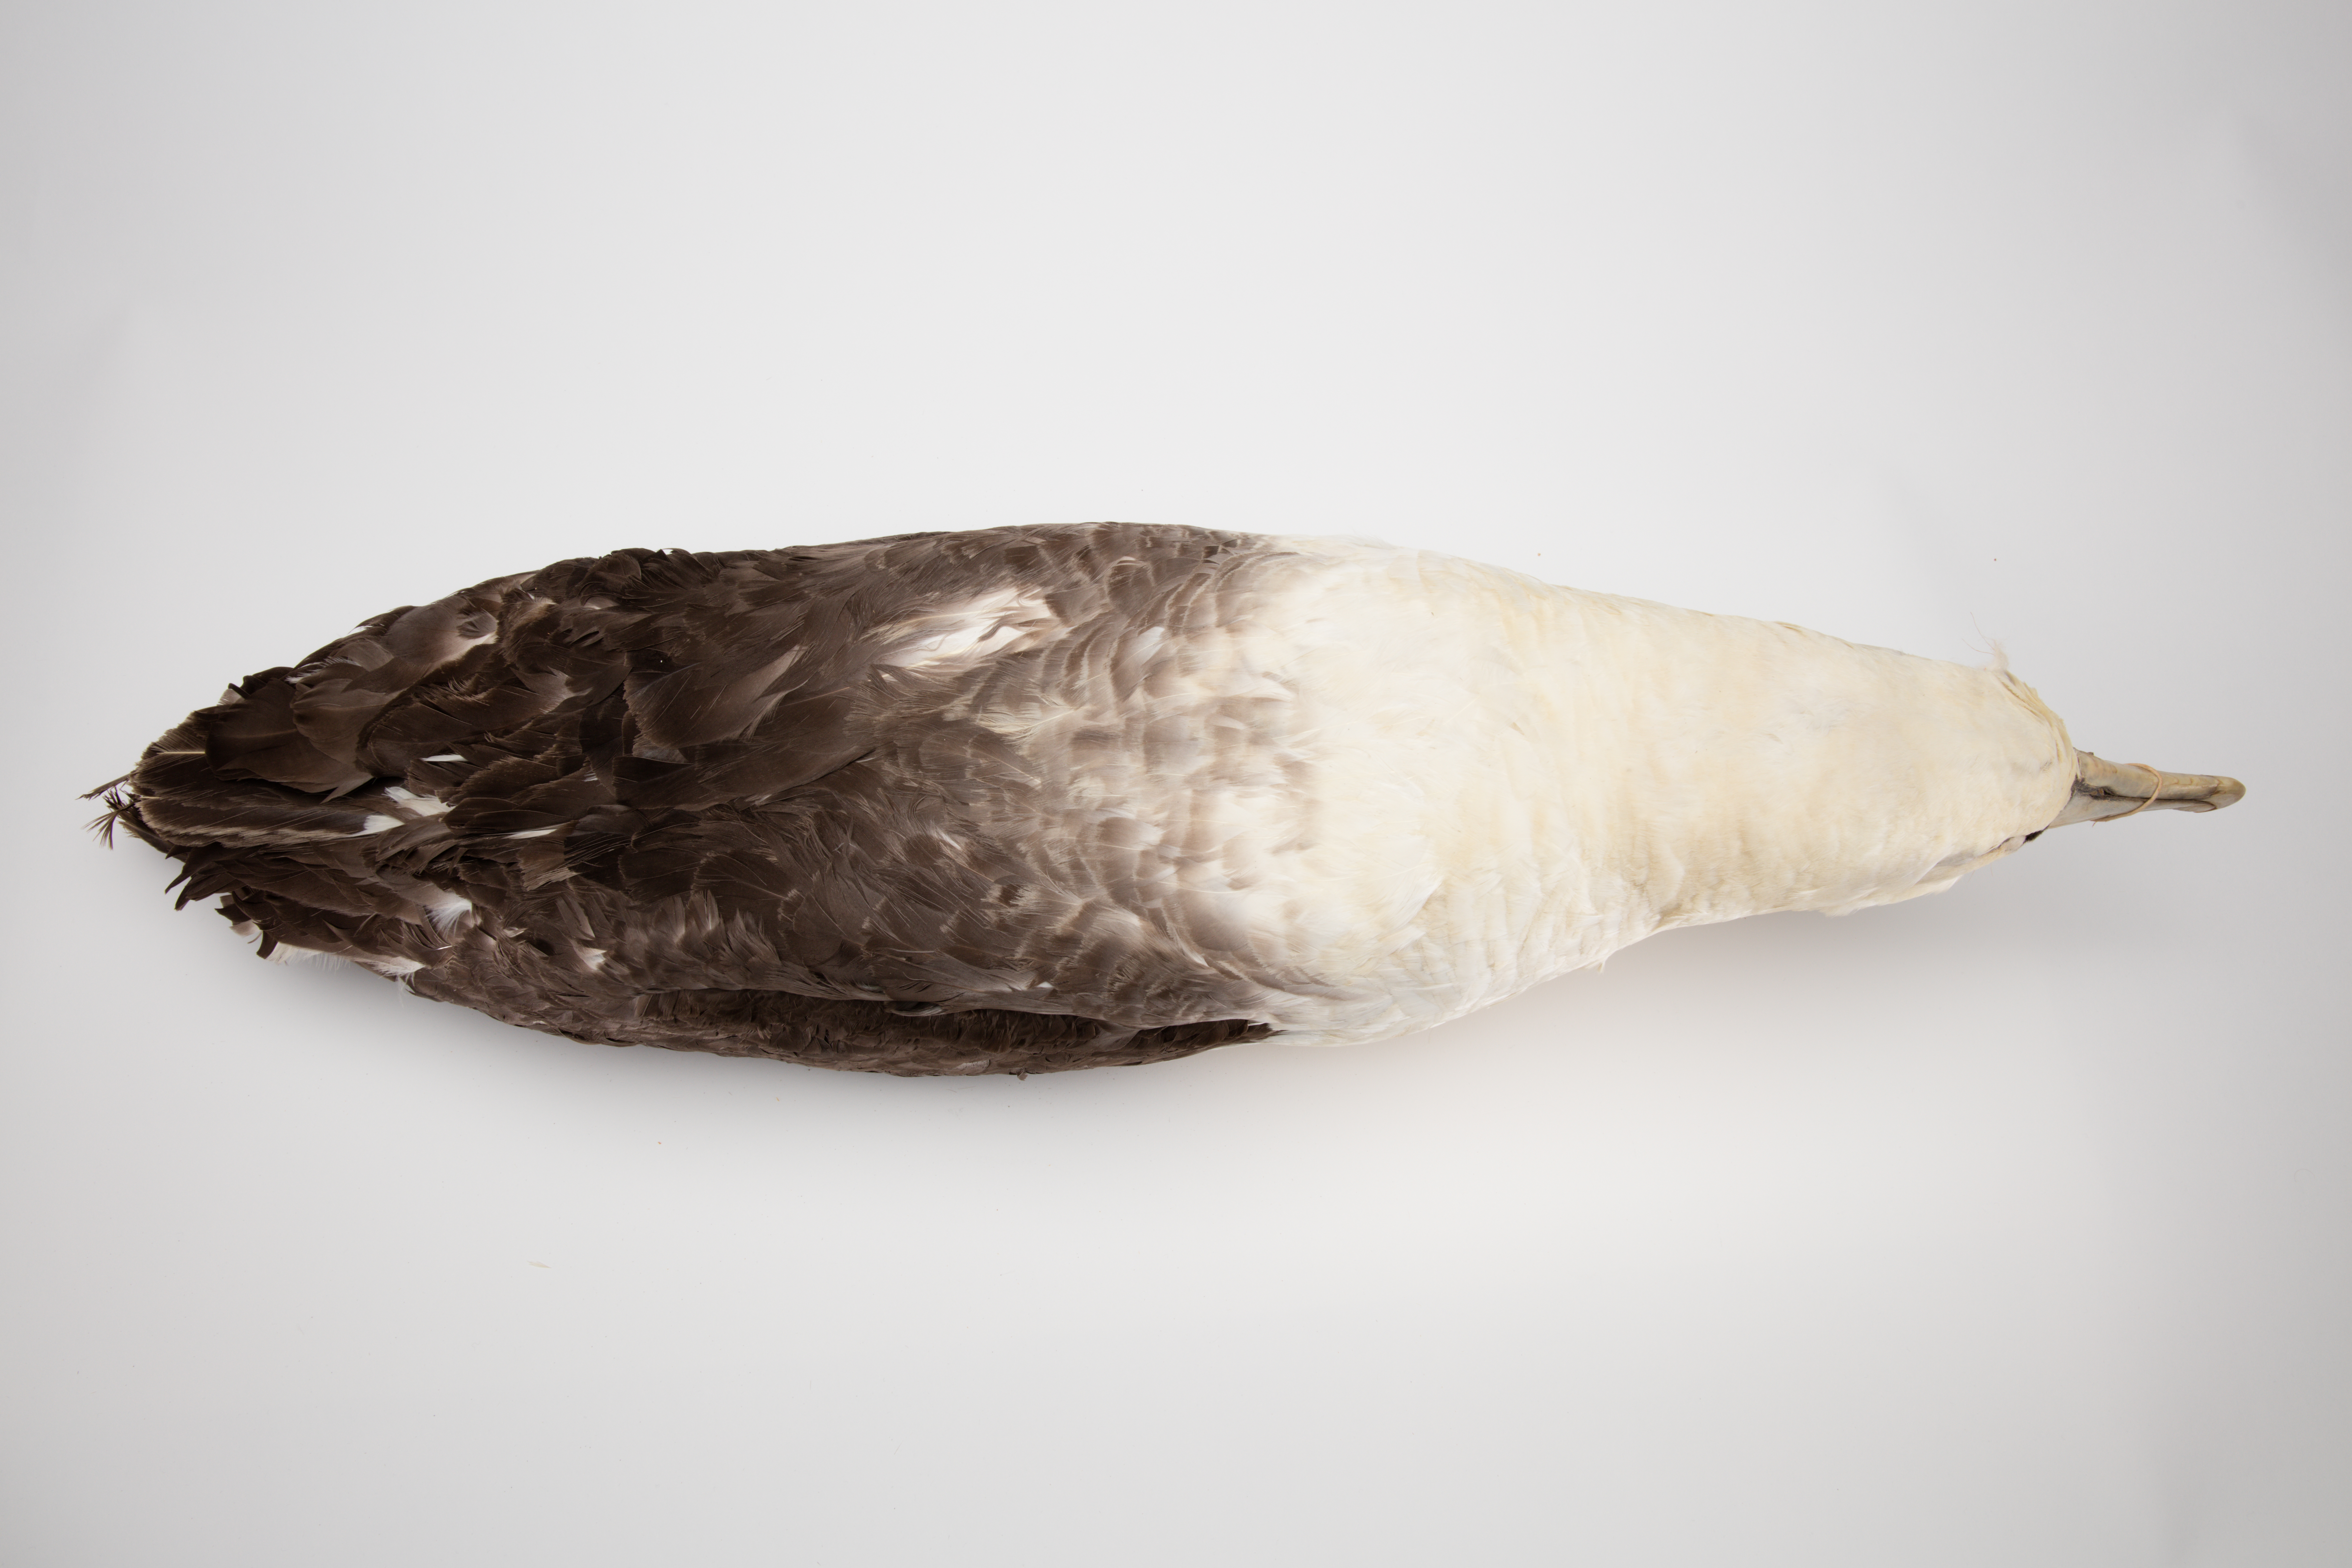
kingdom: Animalia
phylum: Chordata
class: Aves
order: Procellariiformes
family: Diomedeidae
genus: Thalassarche
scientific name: Thalassarche cauta
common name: Shy albatross
